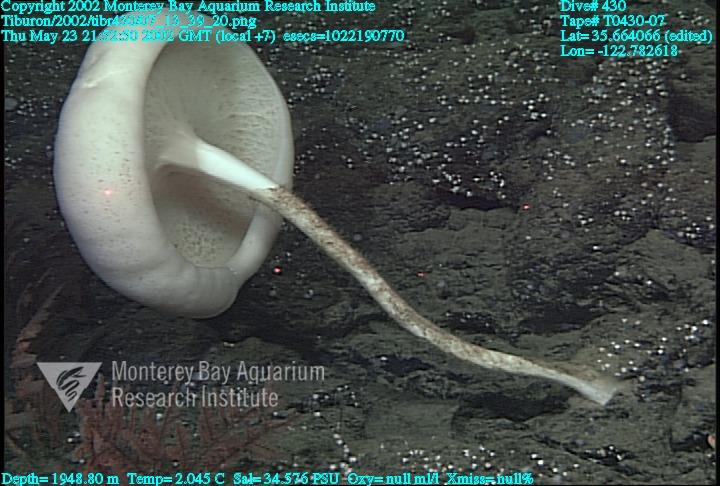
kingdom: Animalia
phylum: Porifera
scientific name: Porifera
